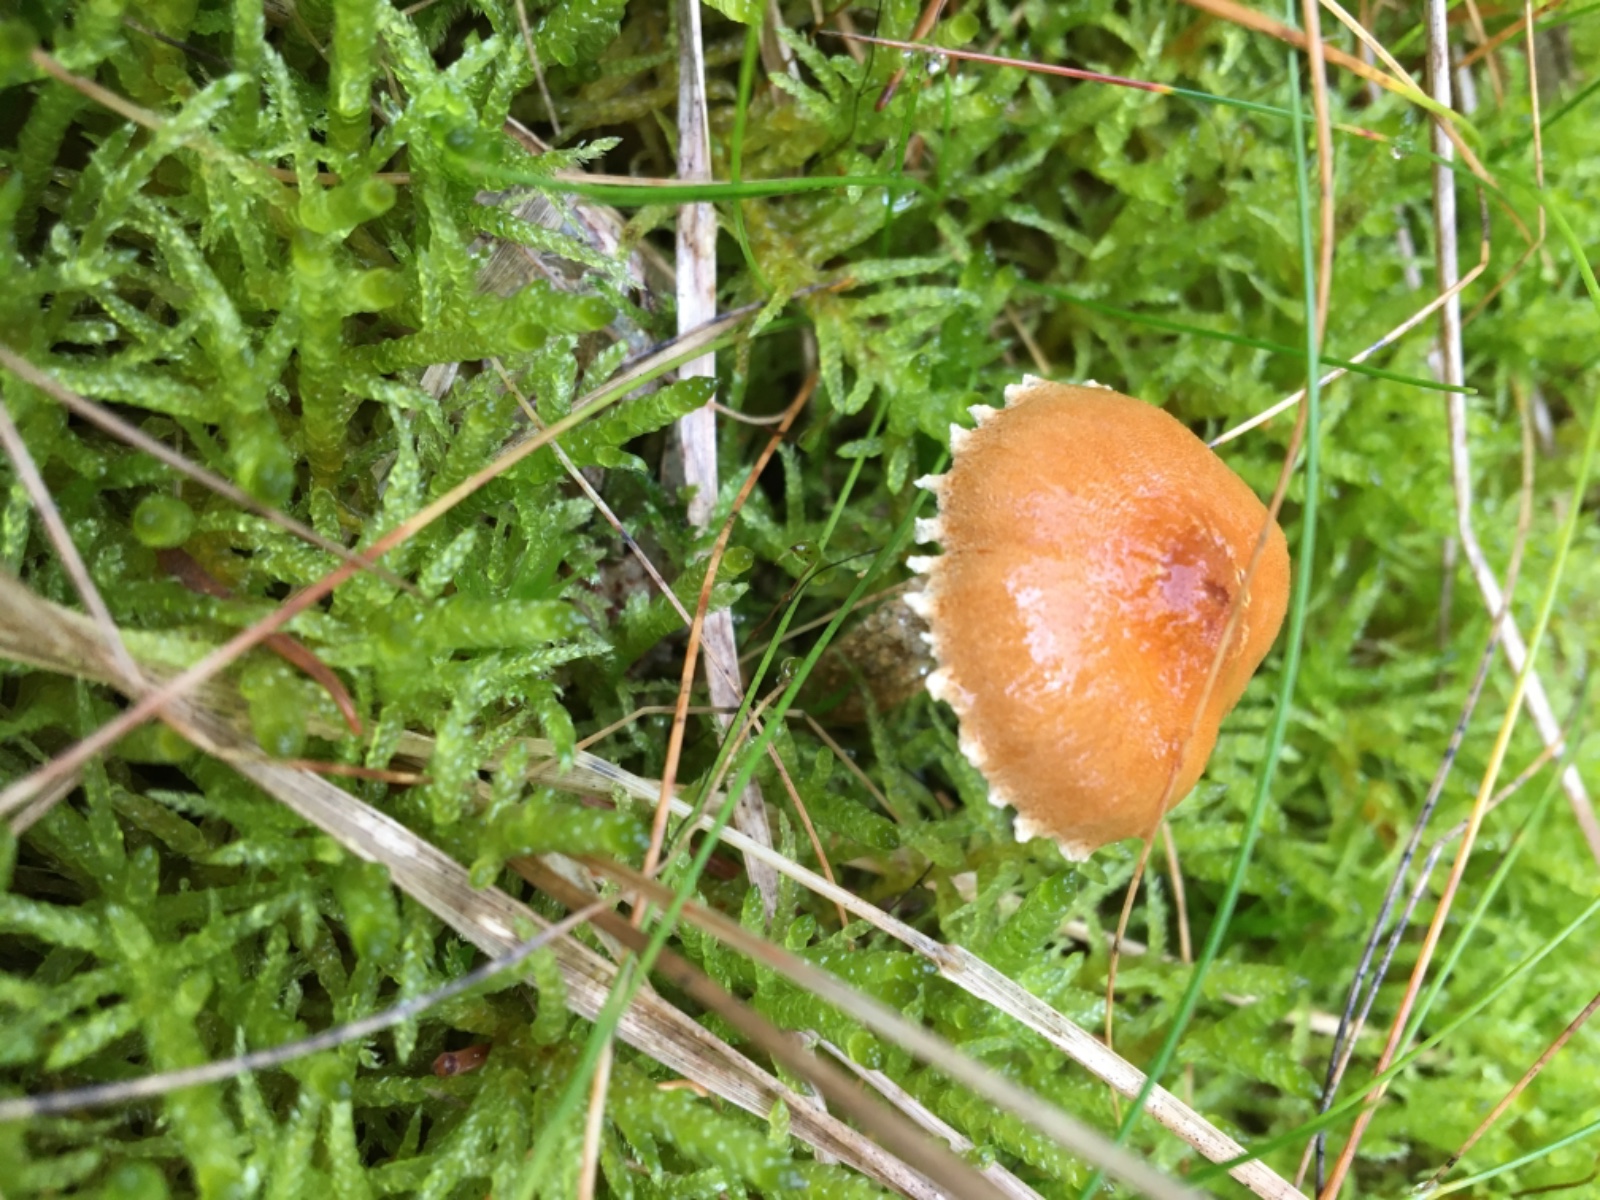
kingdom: Fungi
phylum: Basidiomycota
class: Agaricomycetes
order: Agaricales
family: Tricholomataceae
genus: Cystoderma
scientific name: Cystoderma
